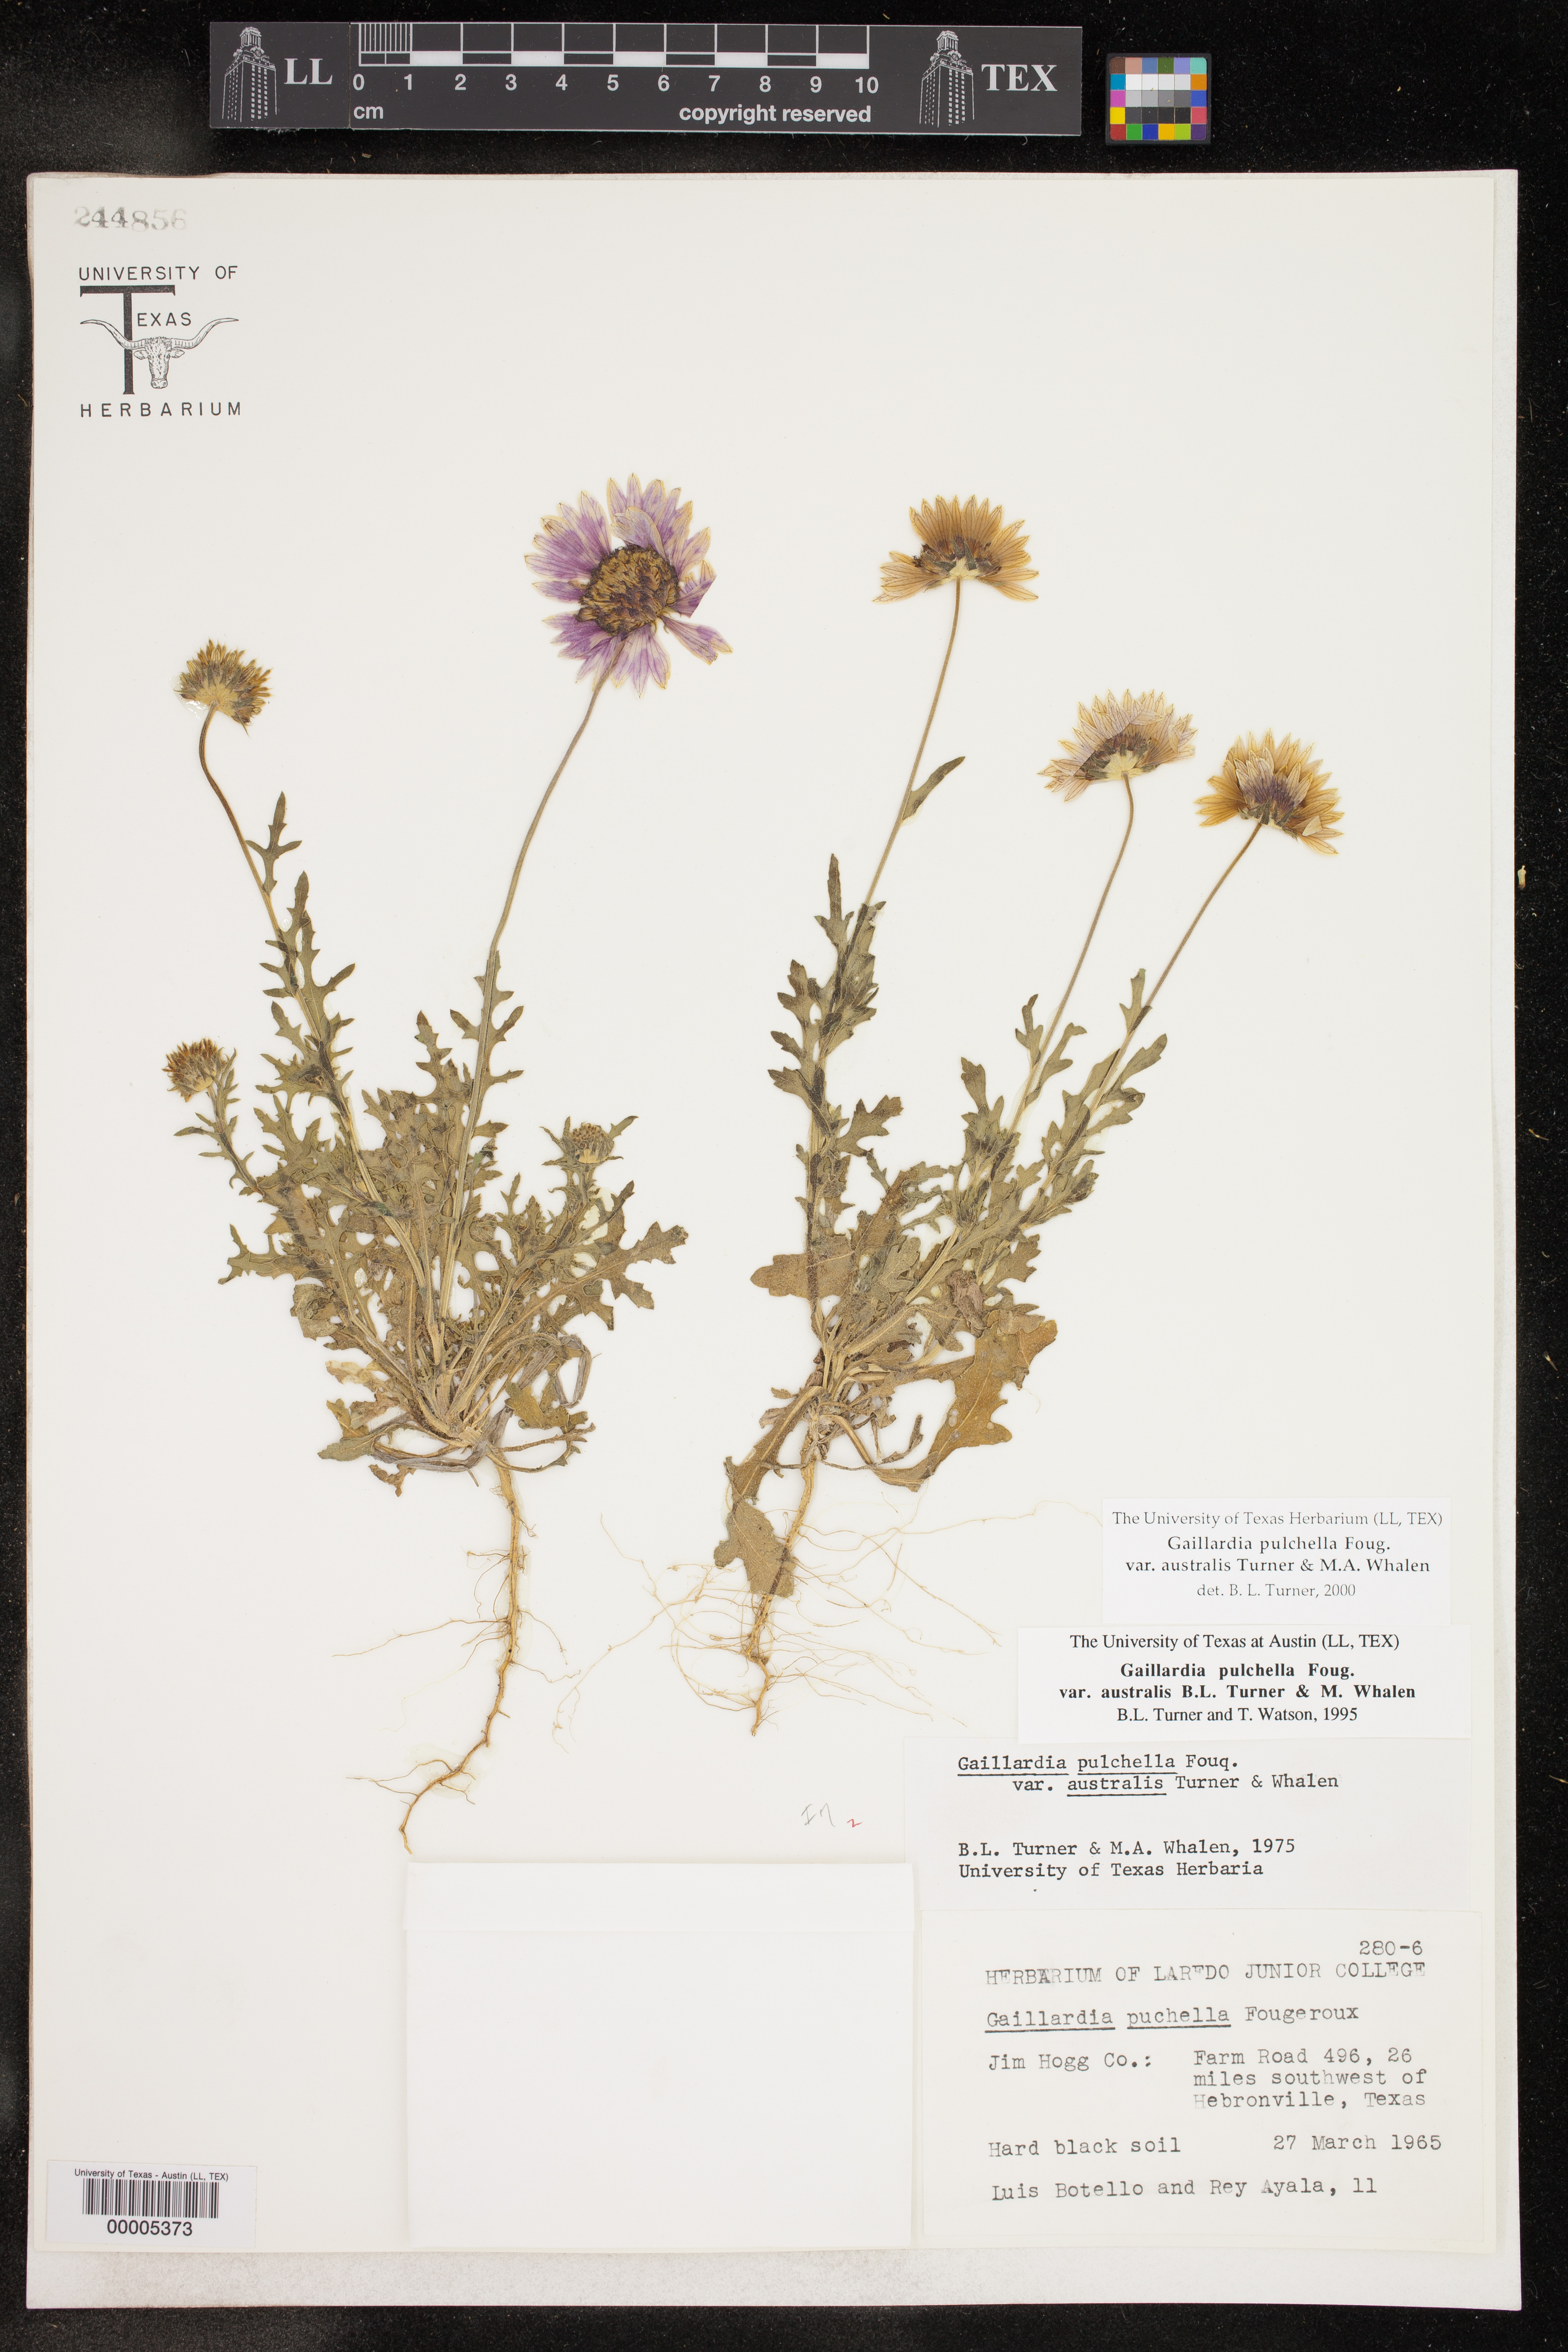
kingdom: Plantae
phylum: Tracheophyta
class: Magnoliopsida
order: Asterales
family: Asteraceae
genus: Gaillardia
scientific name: Gaillardia pulchella
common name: Firewheel
